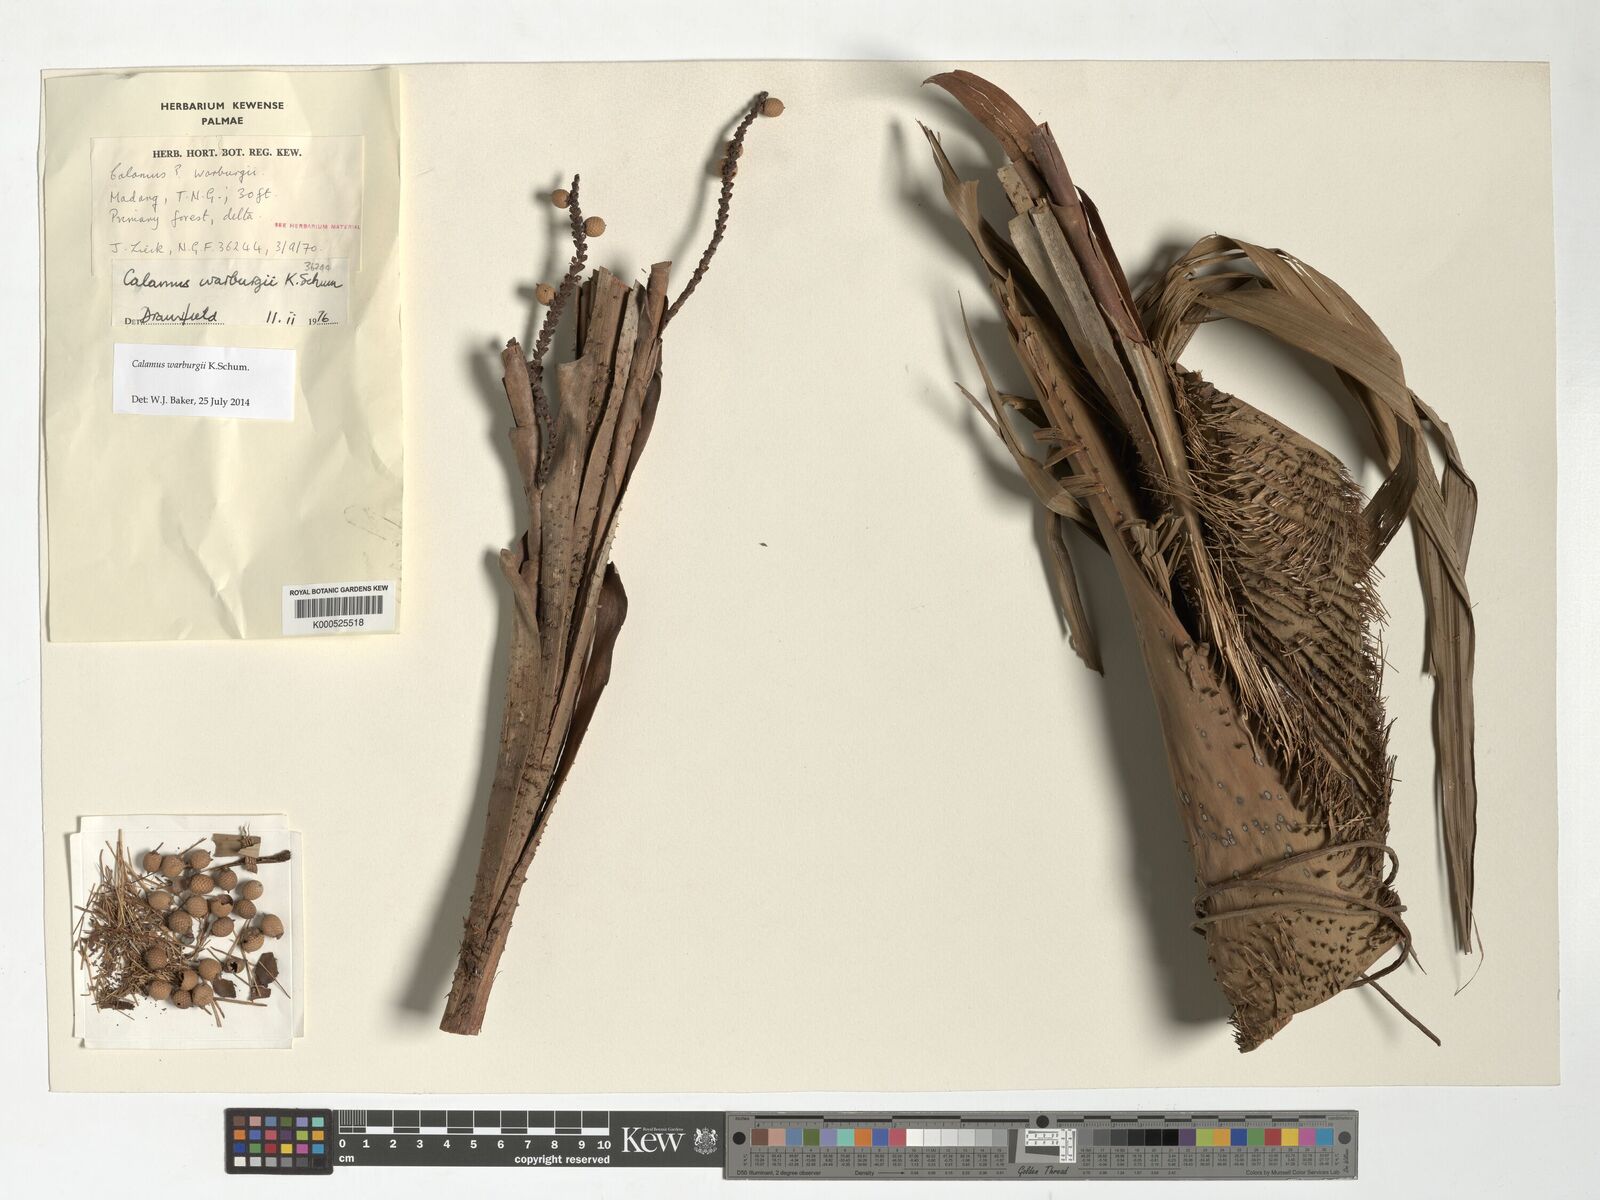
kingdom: Plantae
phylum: Tracheophyta
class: Liliopsida
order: Arecales
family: Arecaceae
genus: Calamus
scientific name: Calamus warburgii
